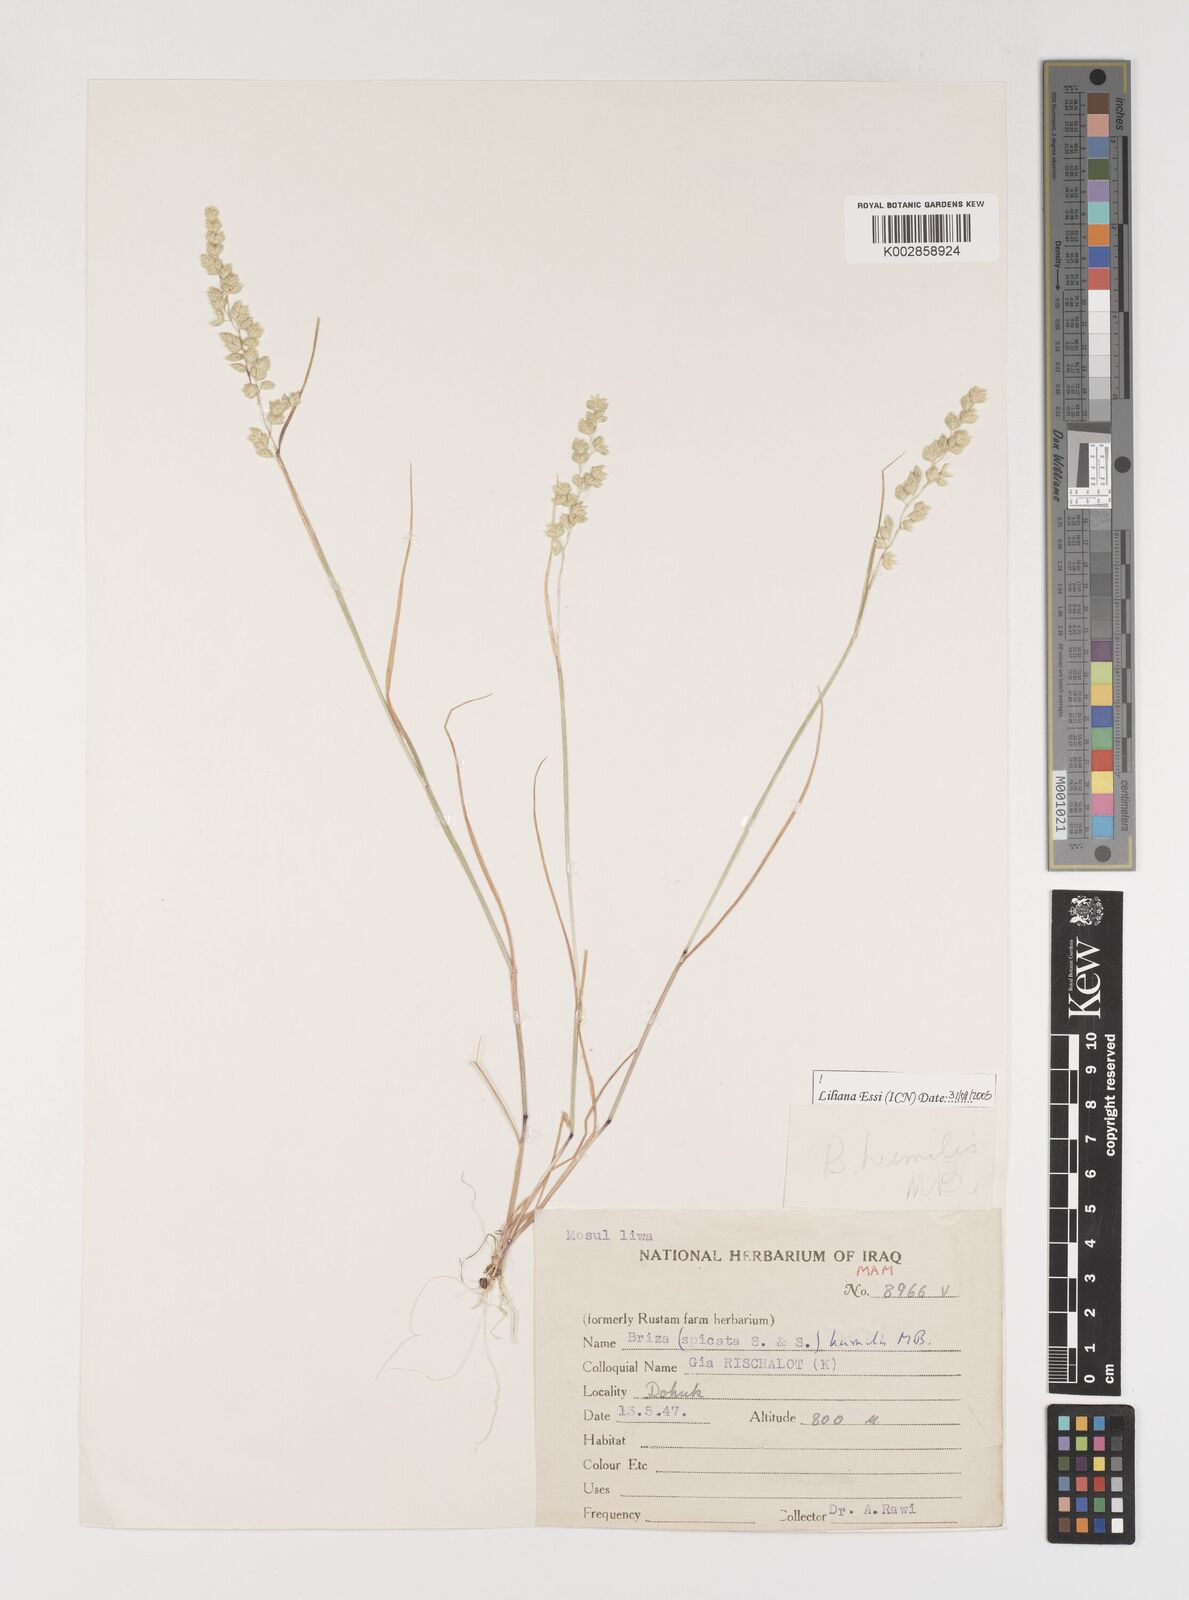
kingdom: Plantae
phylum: Tracheophyta
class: Liliopsida
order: Poales
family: Poaceae
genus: Briza
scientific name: Briza humilis
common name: Spiked quaking grass
